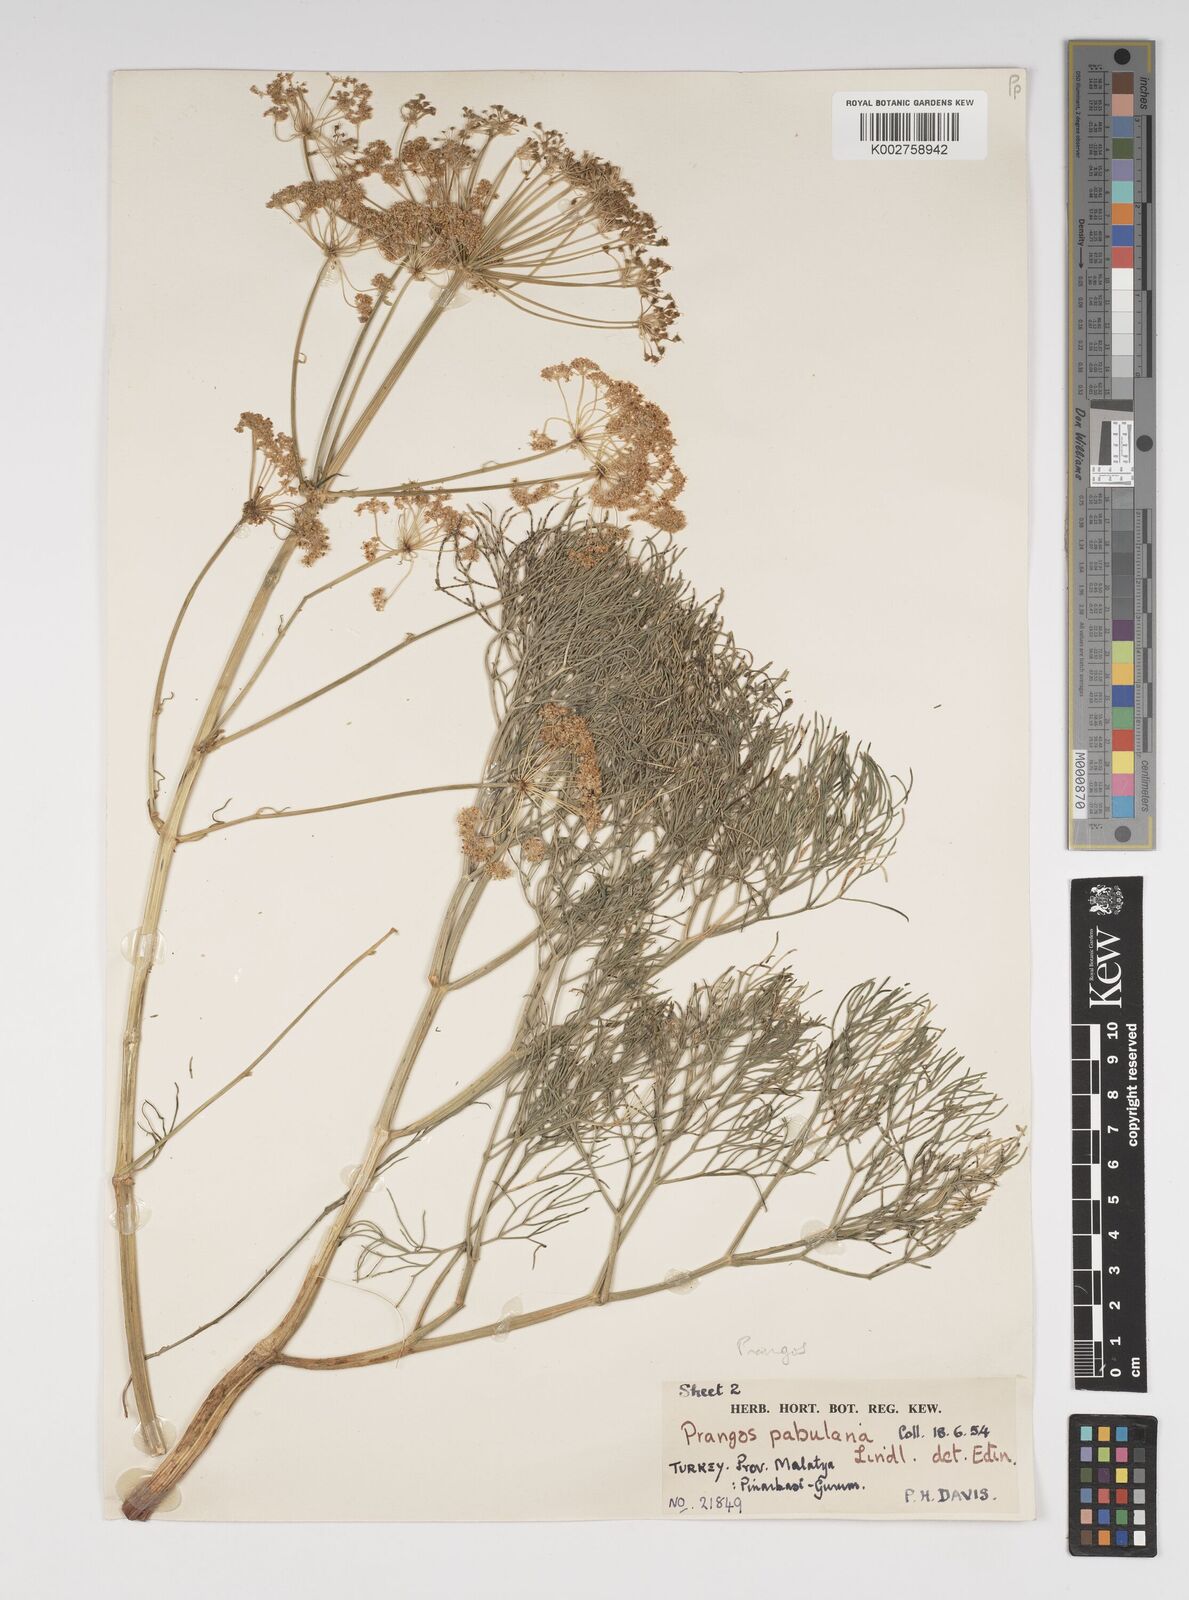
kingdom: Plantae
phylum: Tracheophyta
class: Magnoliopsida
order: Apiales
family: Apiaceae
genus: Prangos
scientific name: Prangos pabularia
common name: Yugan
